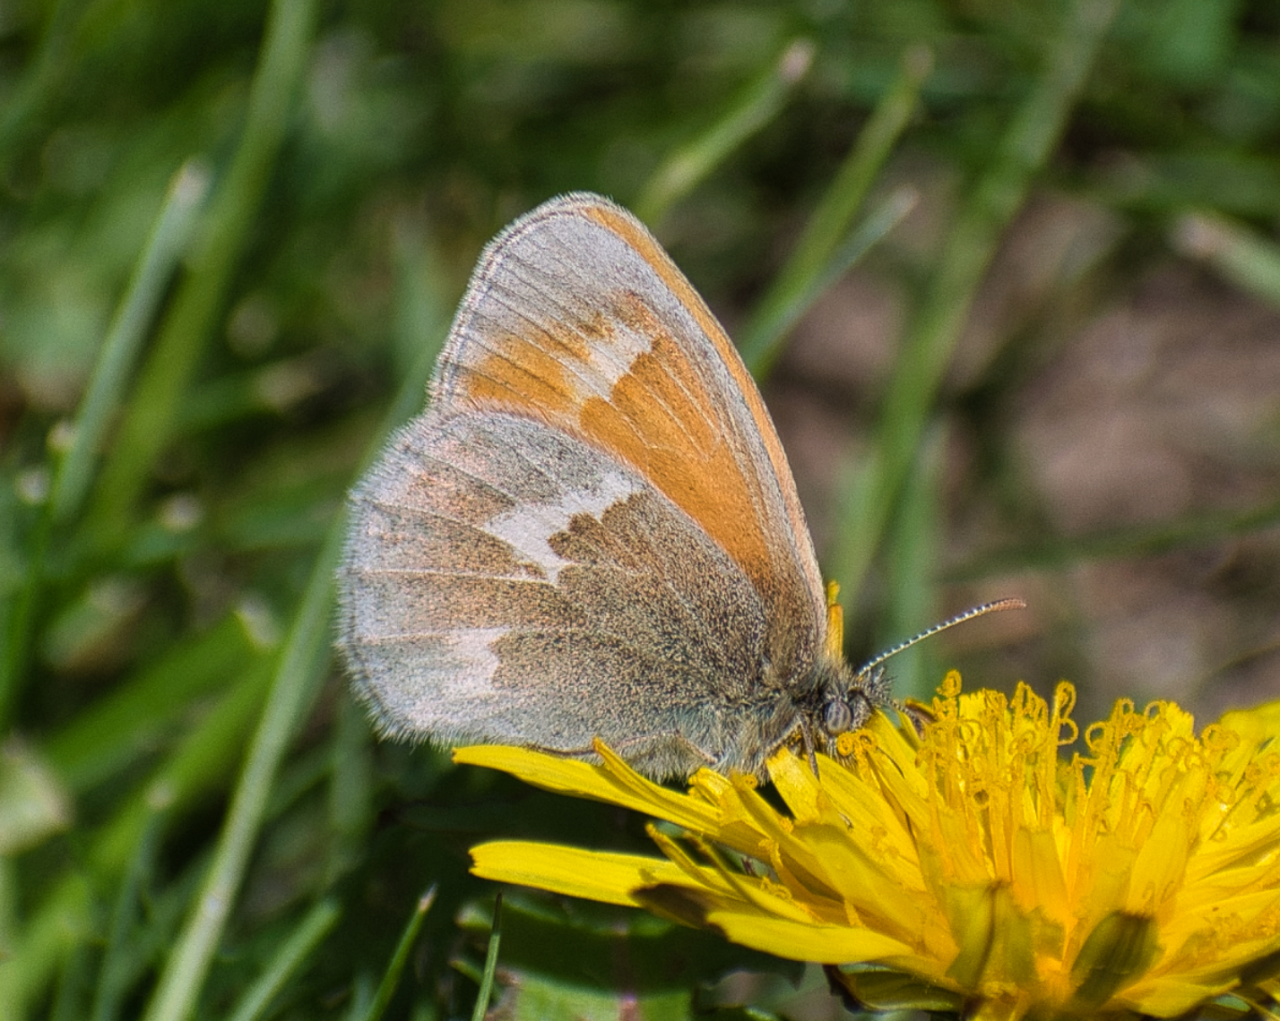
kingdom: Animalia
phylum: Arthropoda
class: Insecta
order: Lepidoptera
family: Nymphalidae
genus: Coenonympha
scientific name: Coenonympha tullia
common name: Large Heath
